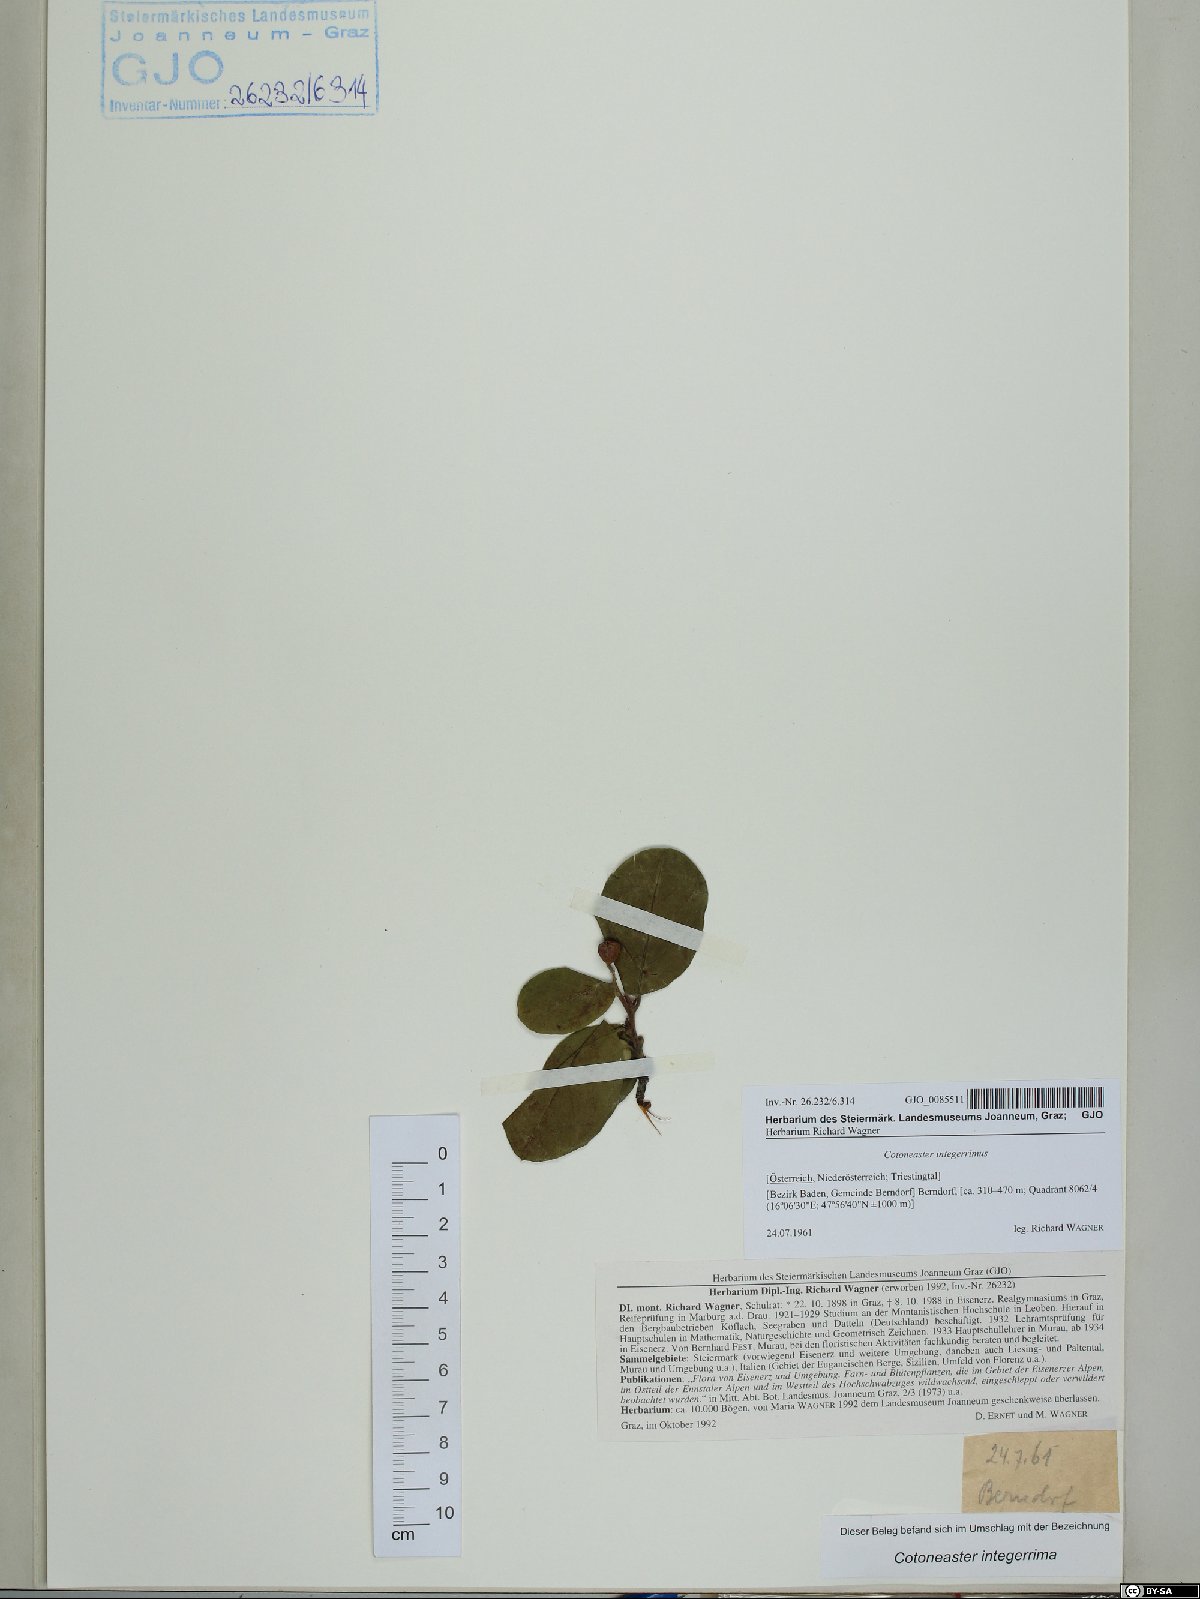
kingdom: Plantae
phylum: Tracheophyta
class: Magnoliopsida
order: Rosales
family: Rosaceae
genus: Cotoneaster
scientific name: Cotoneaster integerrimus
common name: Wild cotoneaster
